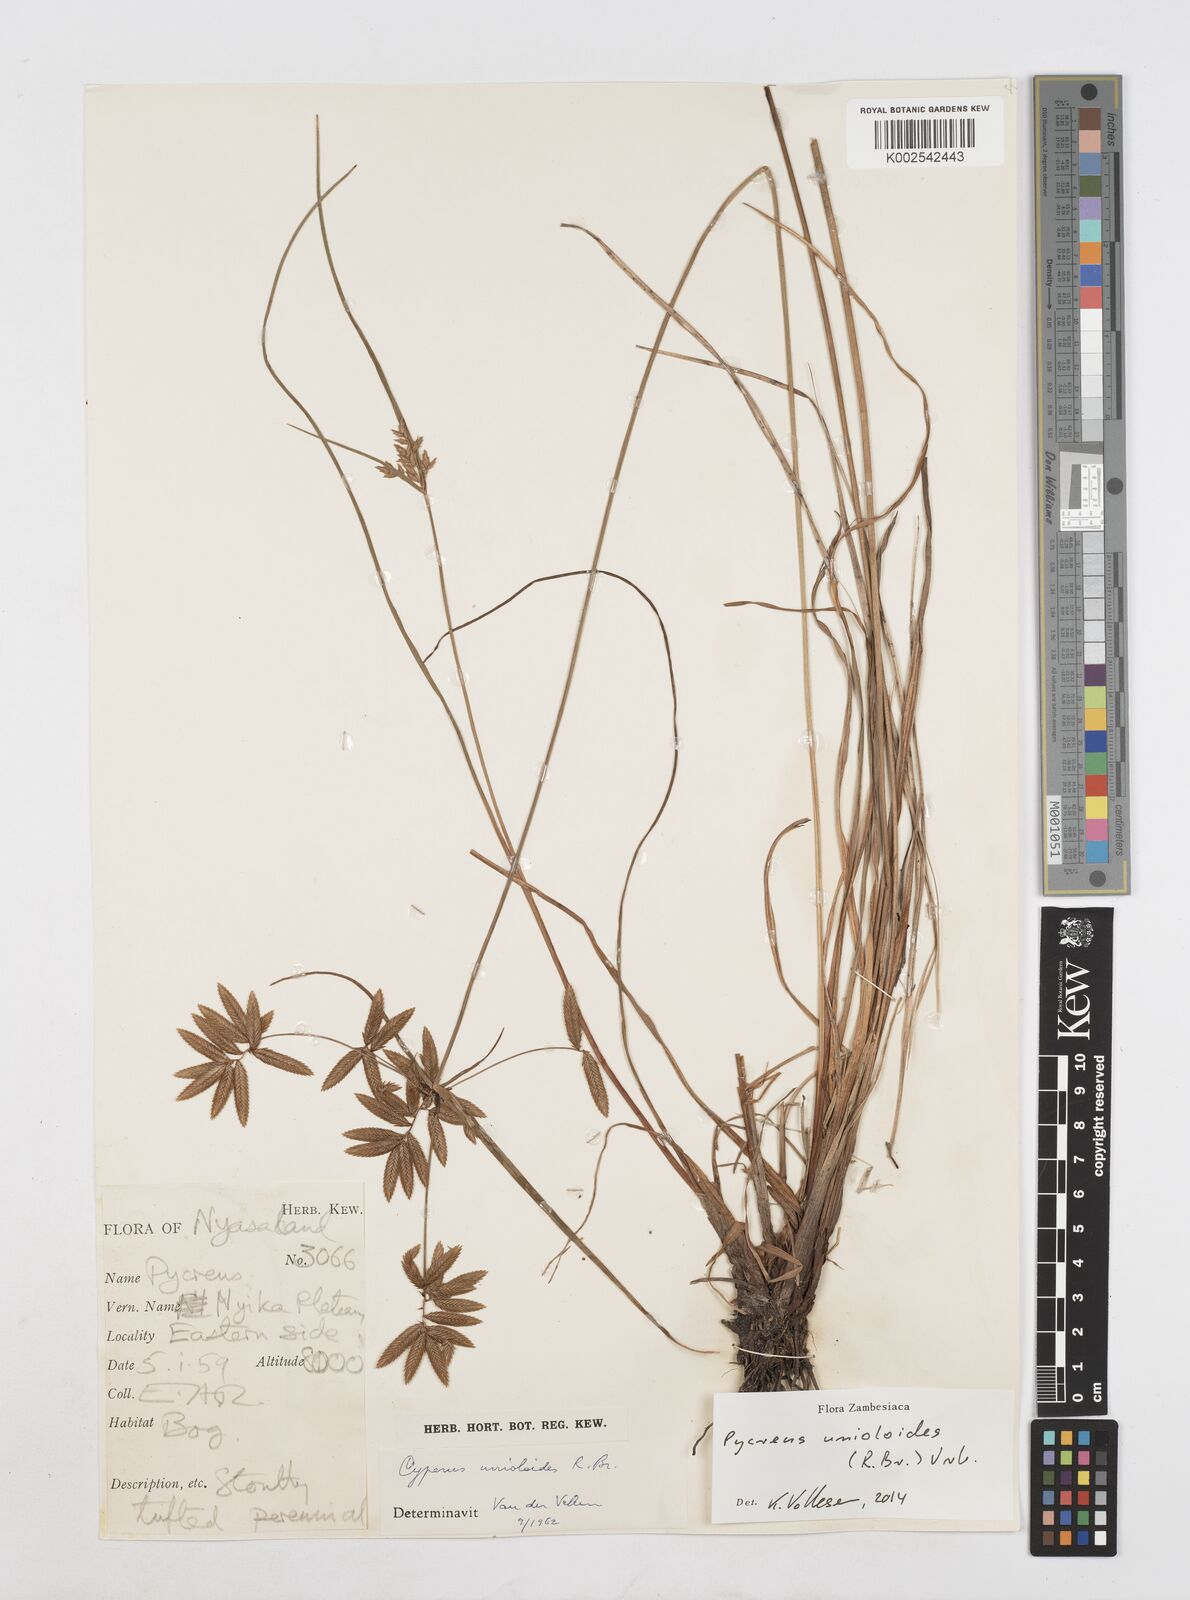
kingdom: Plantae
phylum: Tracheophyta
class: Liliopsida
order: Poales
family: Cyperaceae
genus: Cyperus
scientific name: Cyperus unioloides
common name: Uniola flatsedge
